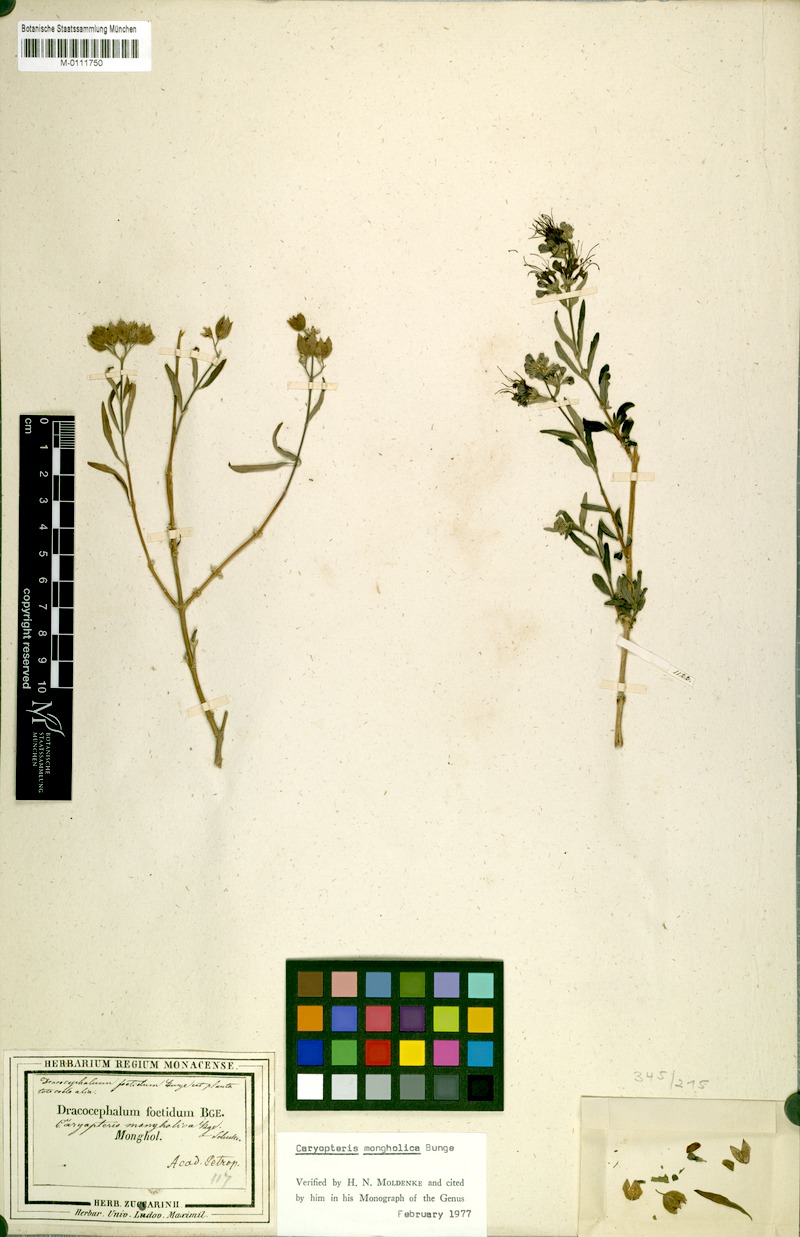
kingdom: Plantae
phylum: Tracheophyta
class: Magnoliopsida
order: Lamiales
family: Lamiaceae
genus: Caryopteris
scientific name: Caryopteris mongholica
